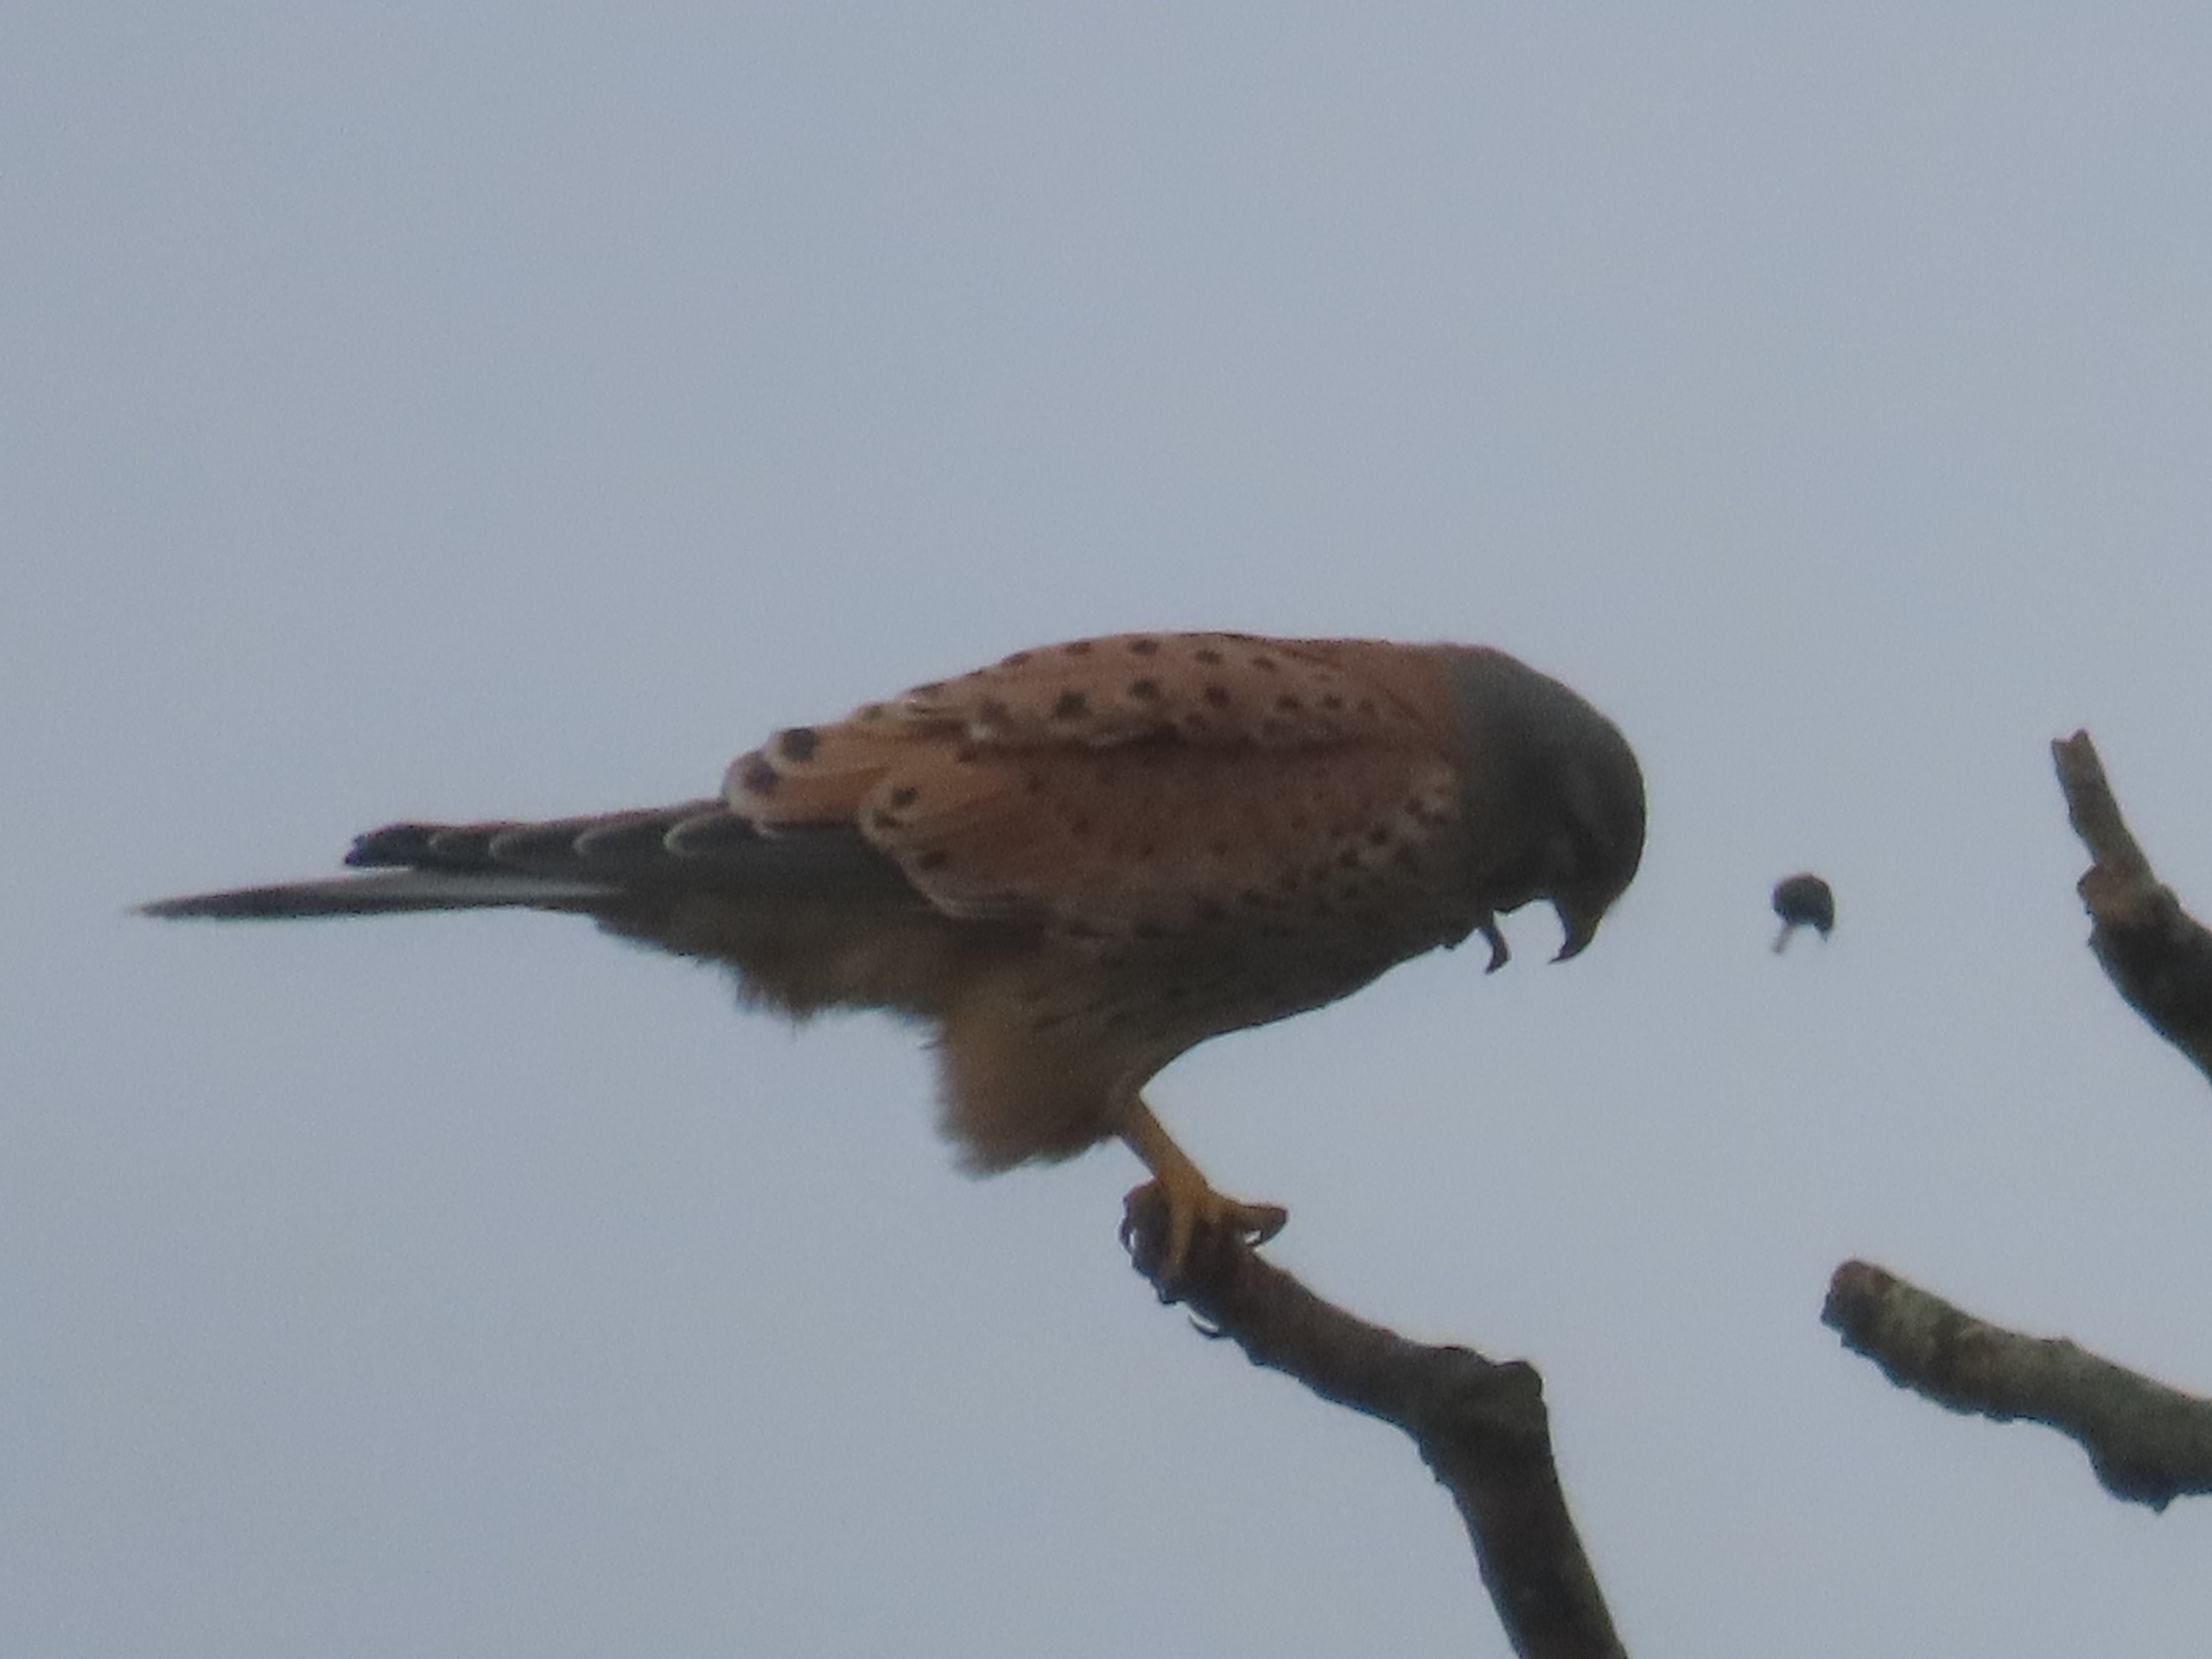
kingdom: Animalia
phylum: Chordata
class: Aves
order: Falconiformes
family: Falconidae
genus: Falco
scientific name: Falco tinnunculus
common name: Tårnfalk
